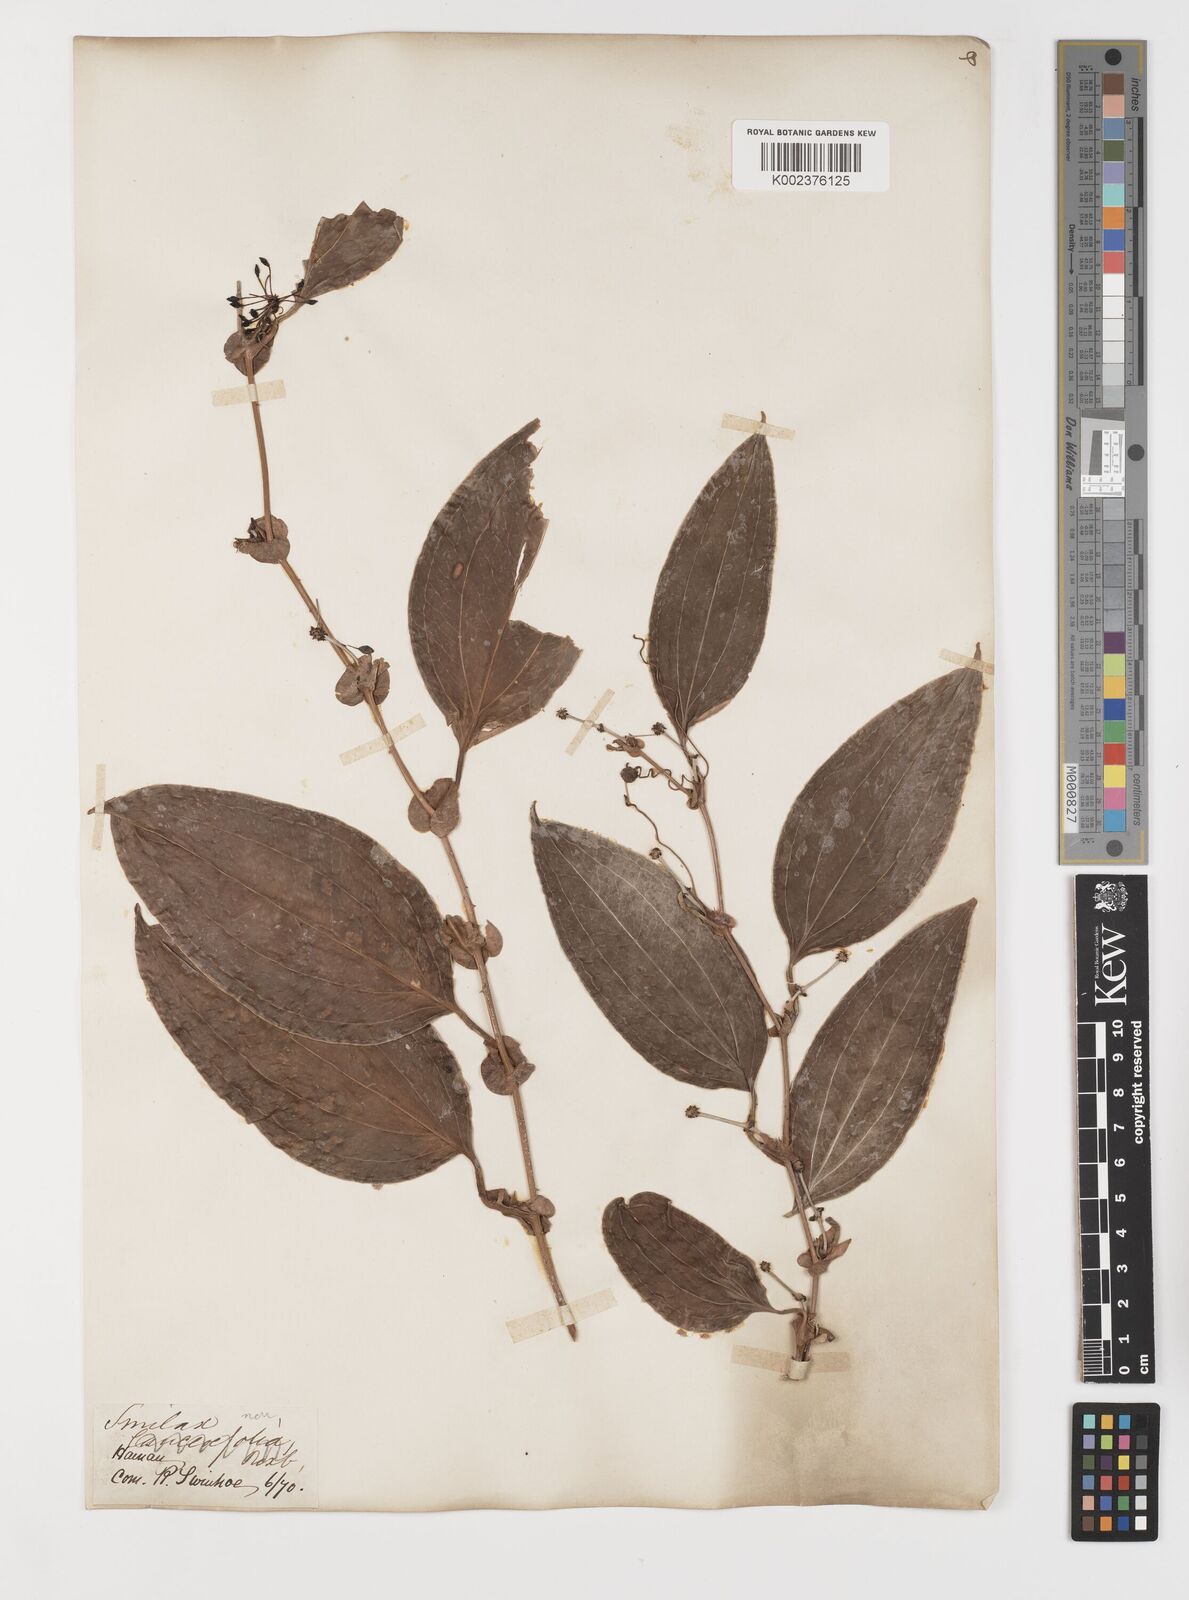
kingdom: Plantae
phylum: Tracheophyta
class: Liliopsida
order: Liliales
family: Smilacaceae
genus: Smilax
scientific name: Smilax ovalifolia
